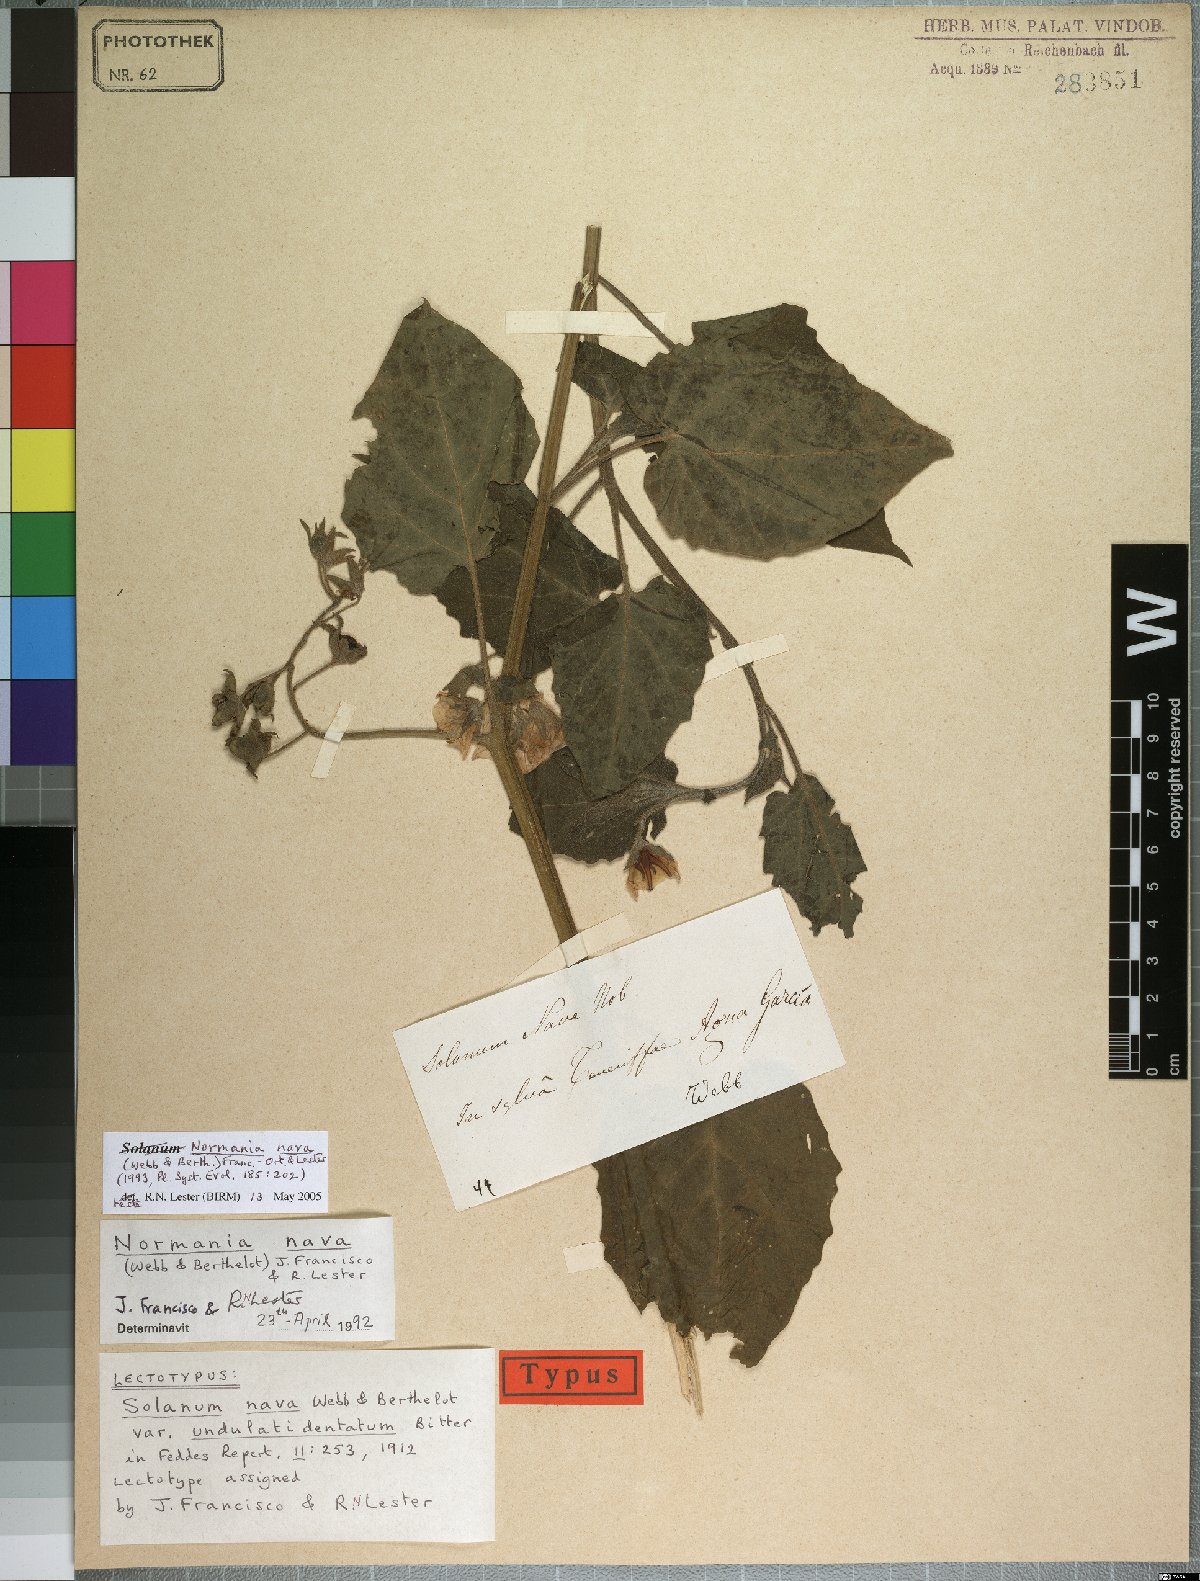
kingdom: Plantae
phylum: Tracheophyta
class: Magnoliopsida
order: Solanales
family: Solanaceae
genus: Solanum
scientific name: Solanum nava
